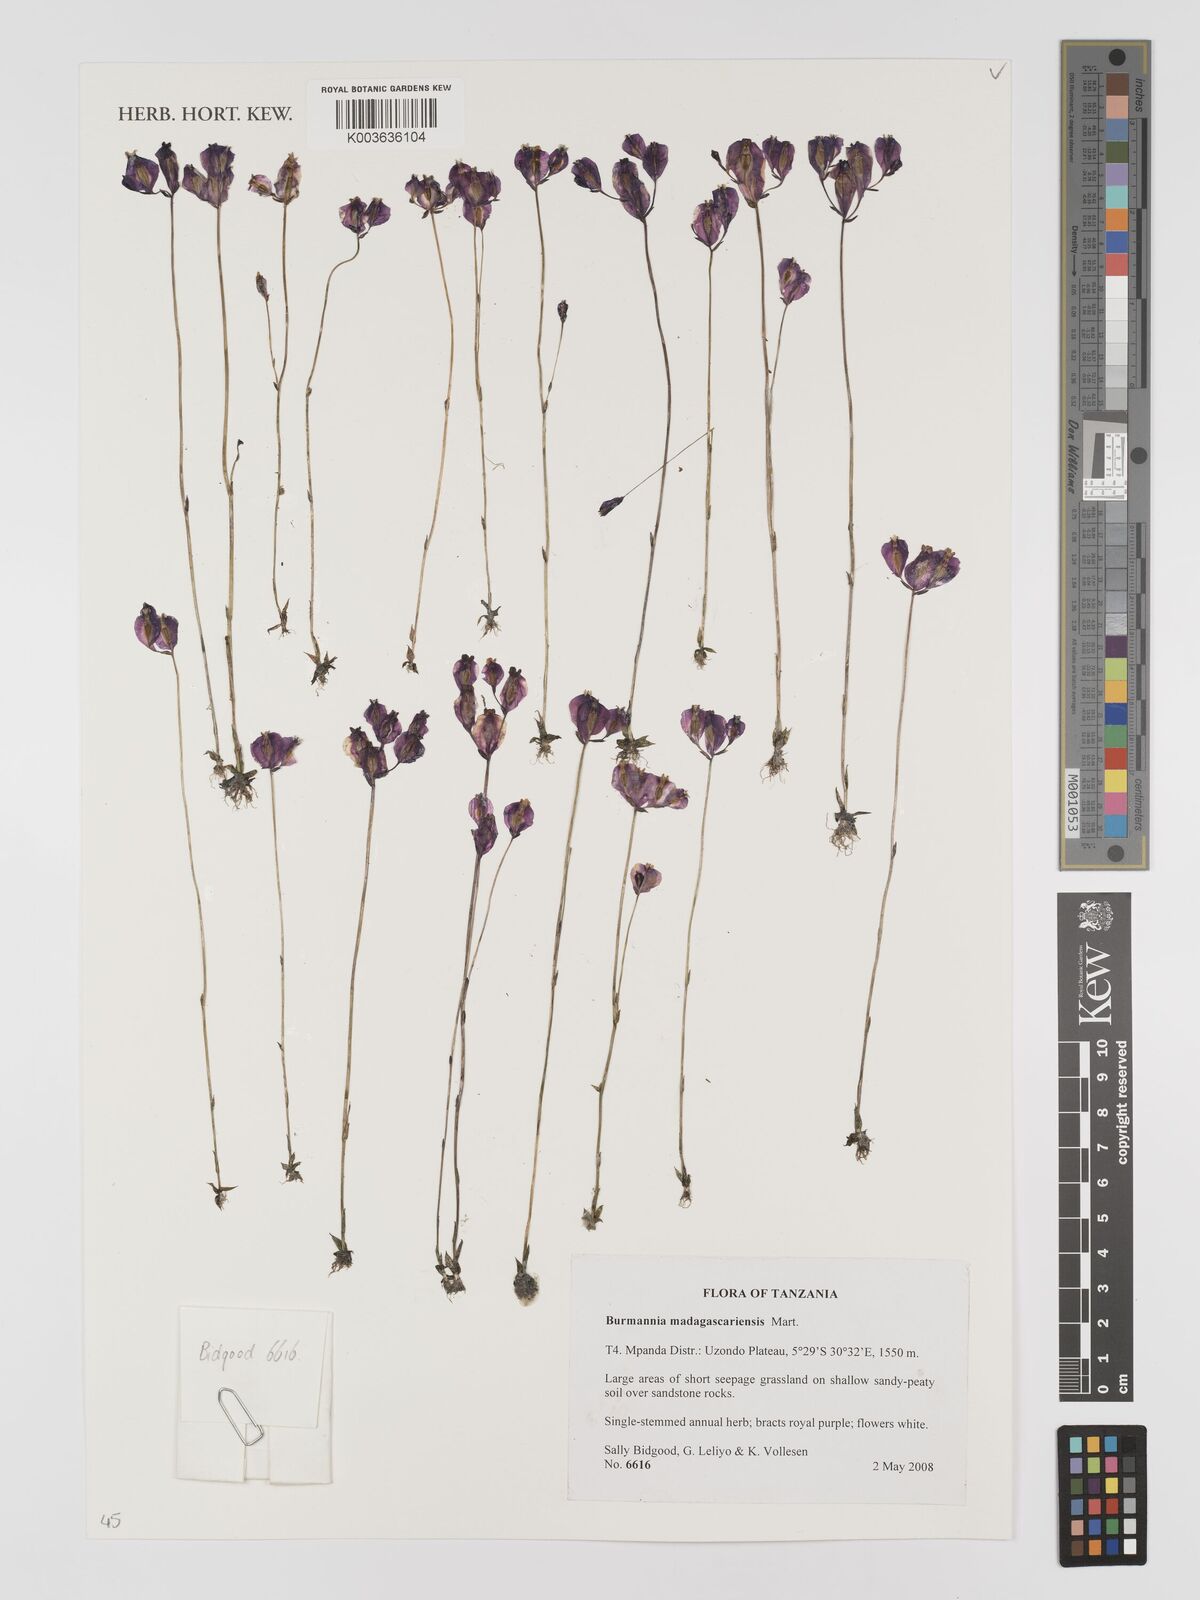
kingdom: Plantae
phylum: Tracheophyta
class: Liliopsida
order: Dioscoreales
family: Burmanniaceae
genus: Burmannia
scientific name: Burmannia madagascariensis
